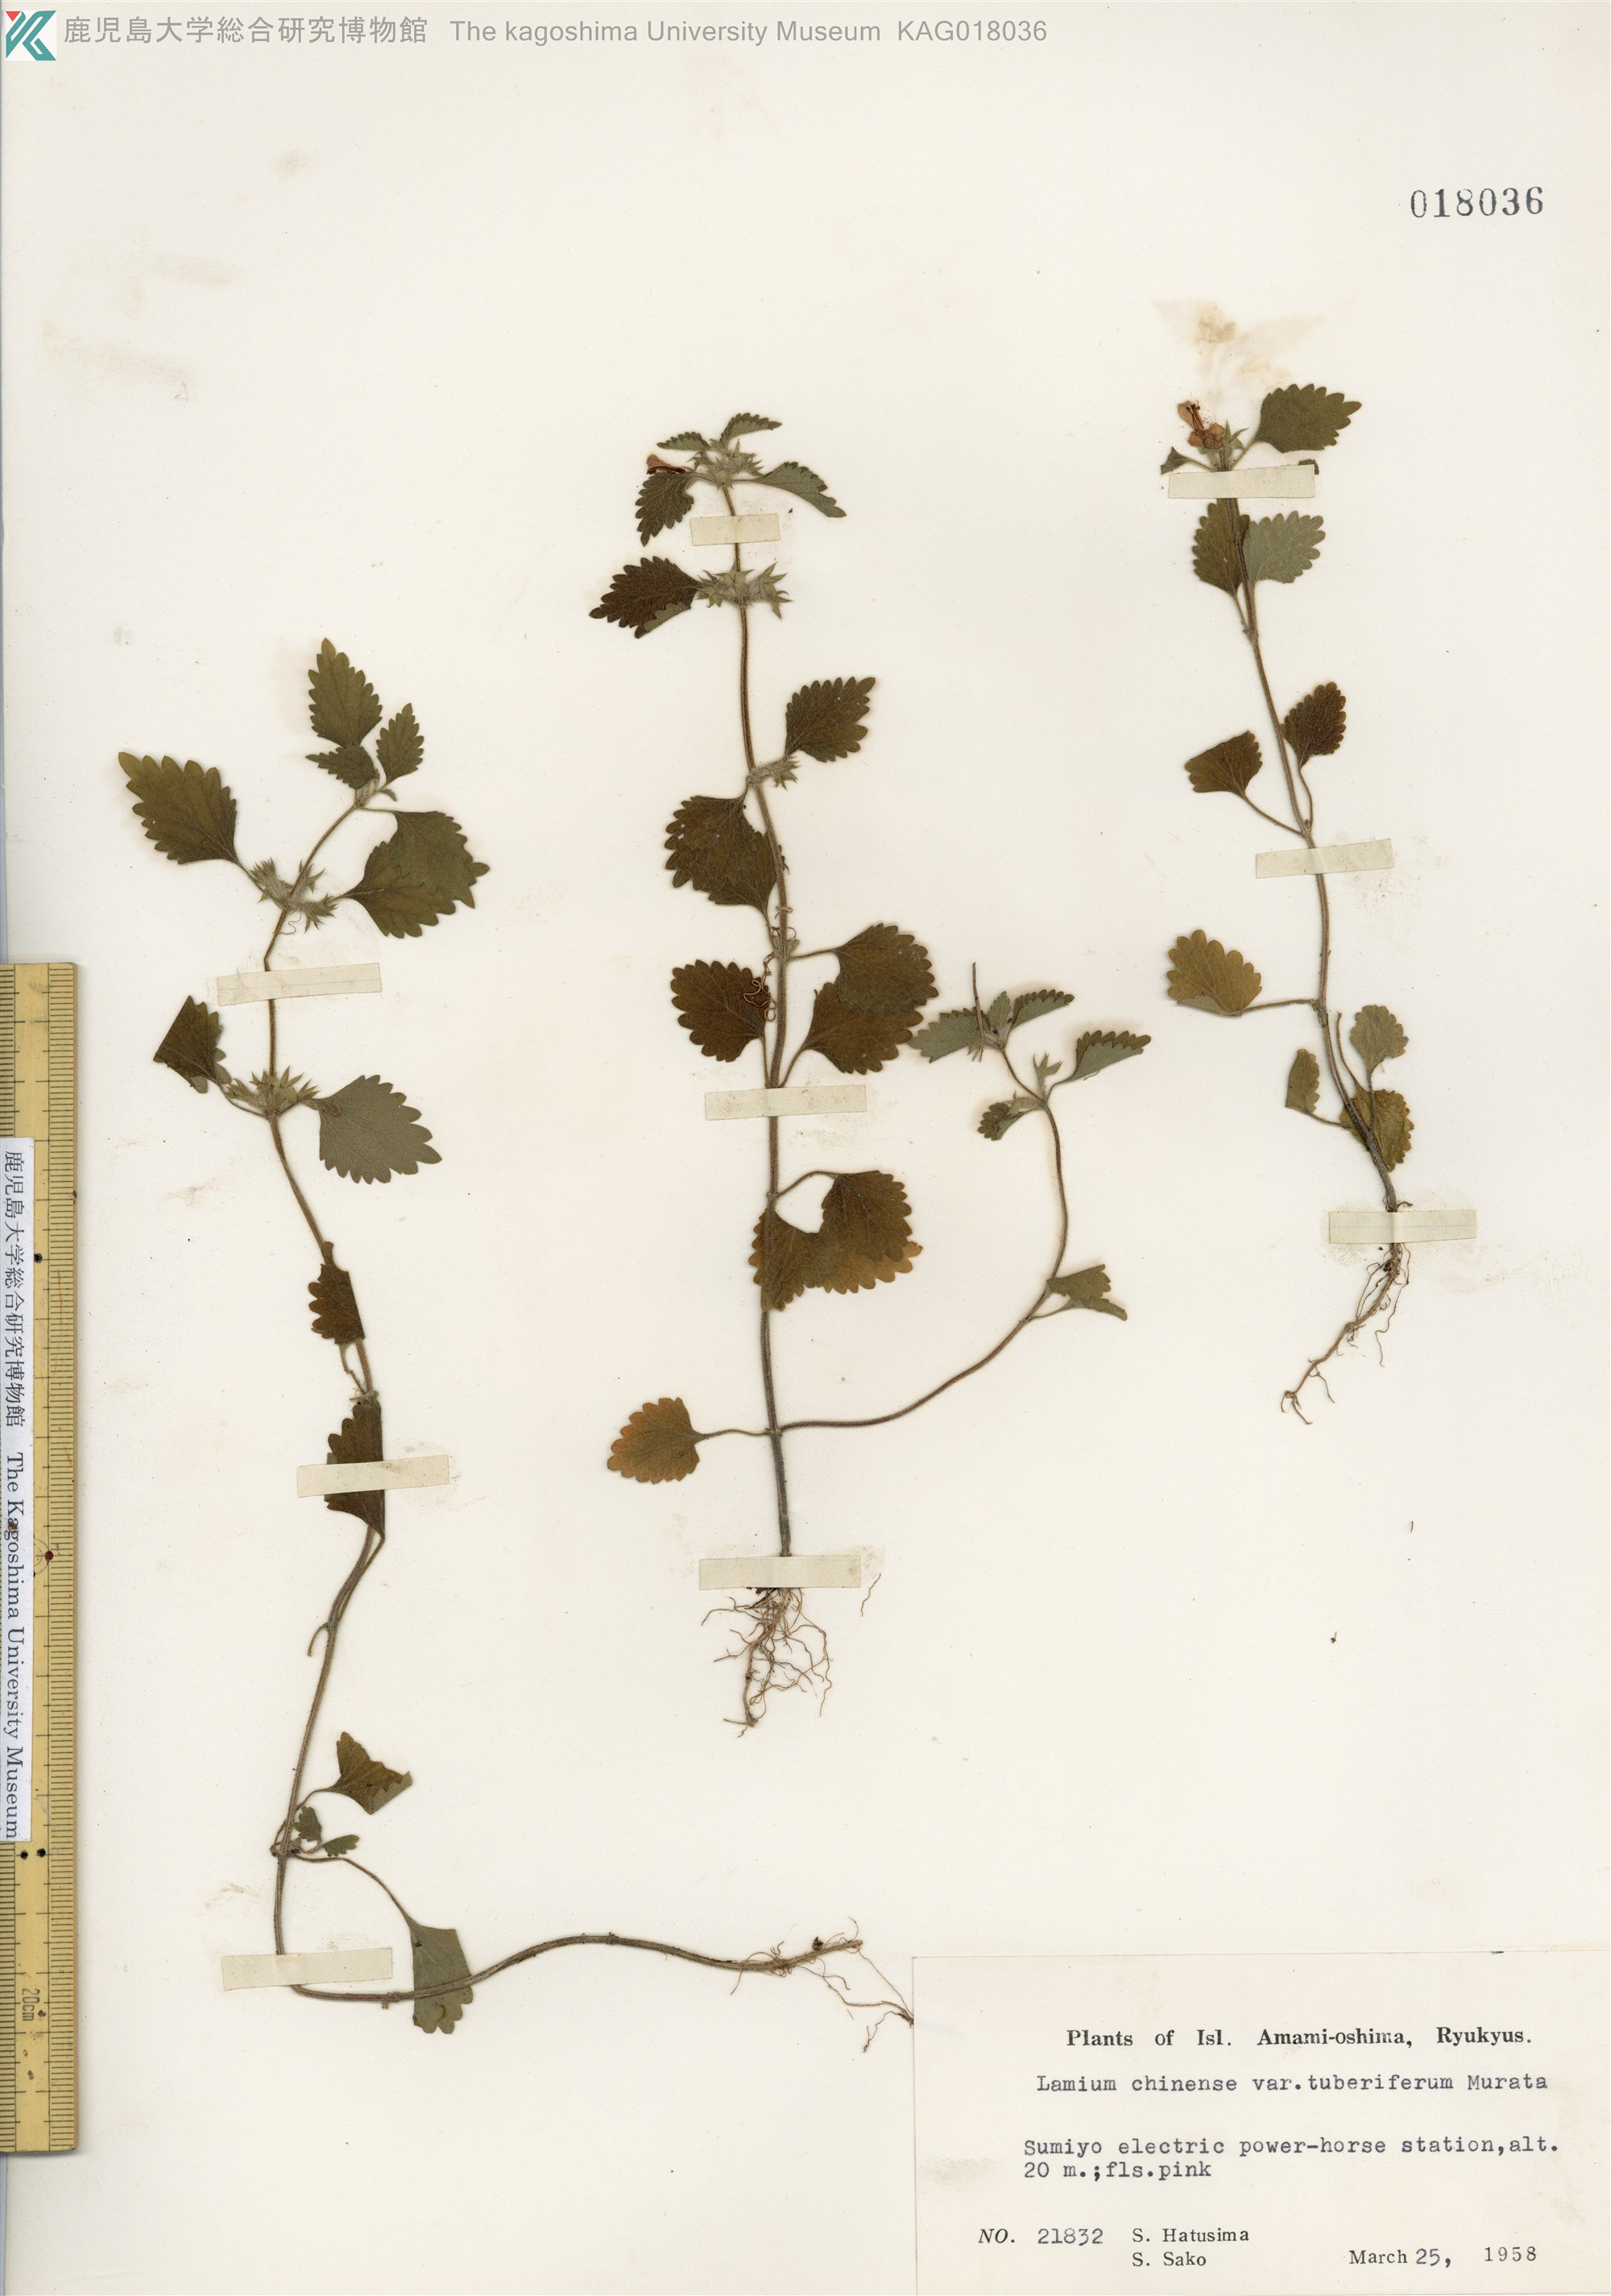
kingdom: Plantae
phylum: Tracheophyta
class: Magnoliopsida
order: Lamiales
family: Lamiaceae
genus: Matsumurella
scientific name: Matsumurella tuberifera
